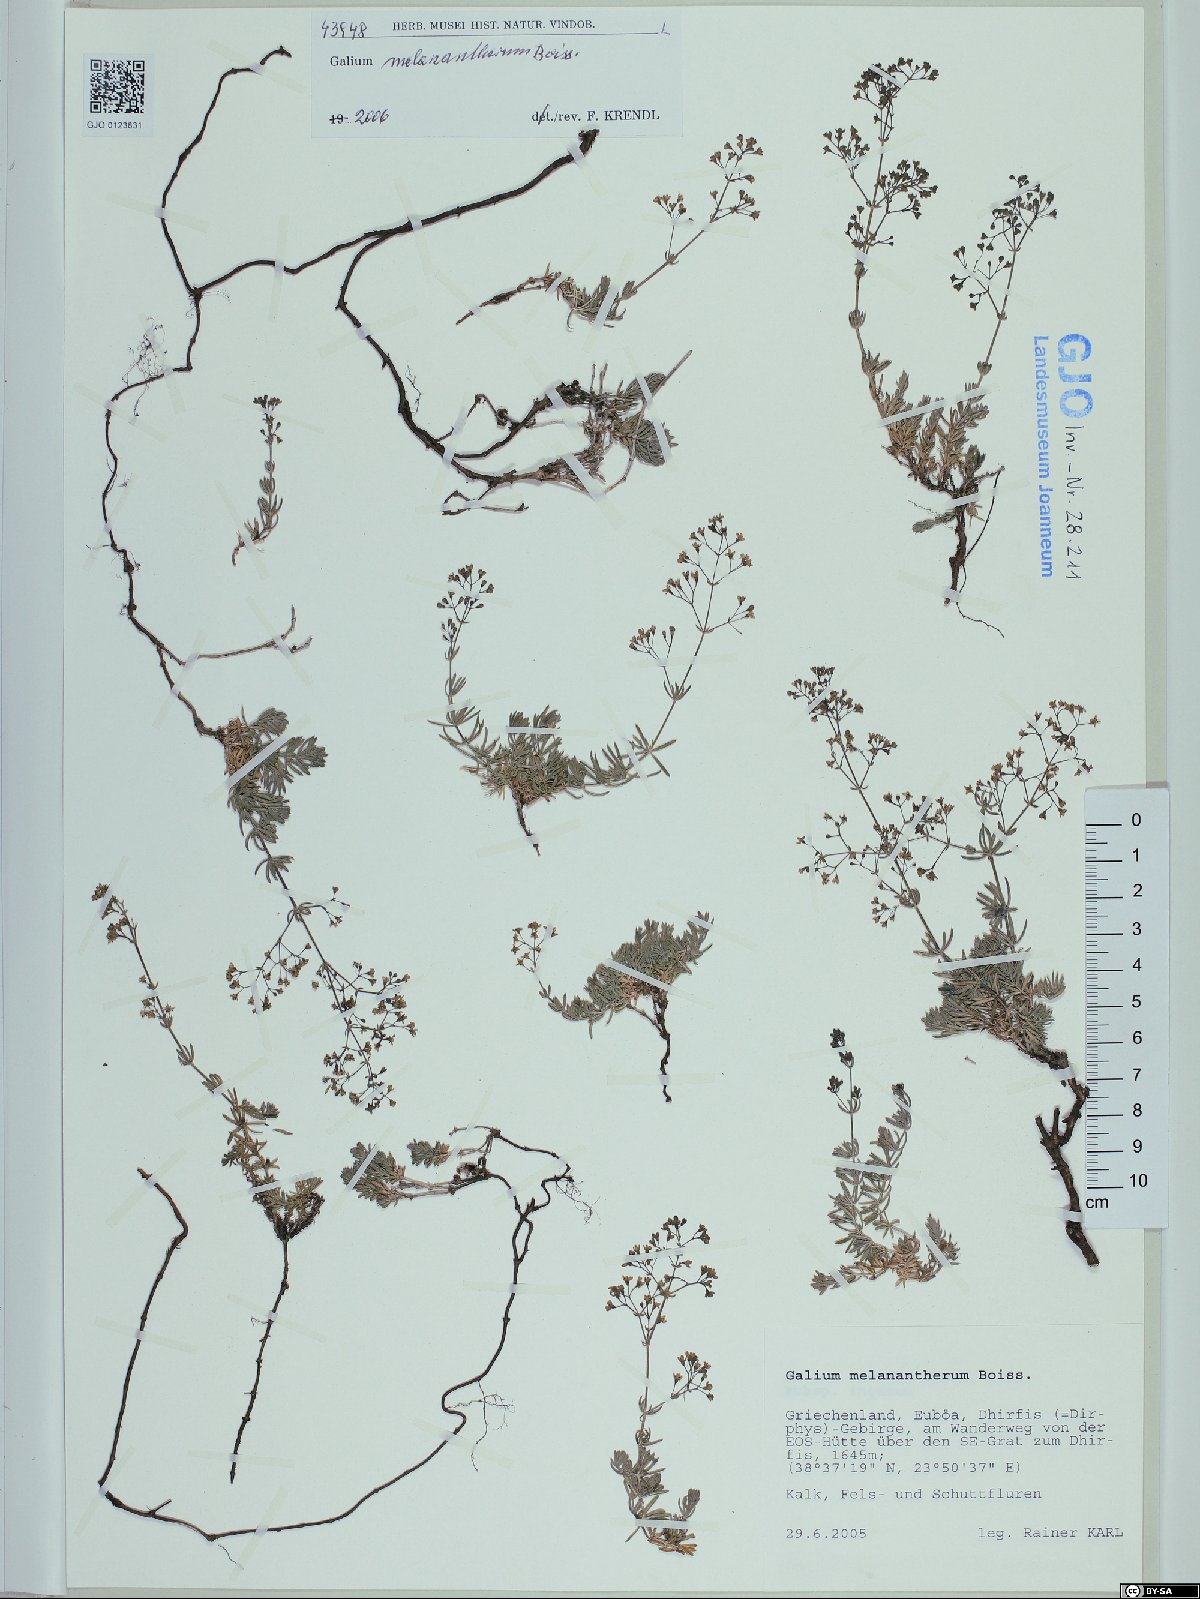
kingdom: Plantae
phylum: Tracheophyta
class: Magnoliopsida
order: Gentianales
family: Rubiaceae
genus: Galium
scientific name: Galium melanantherum
